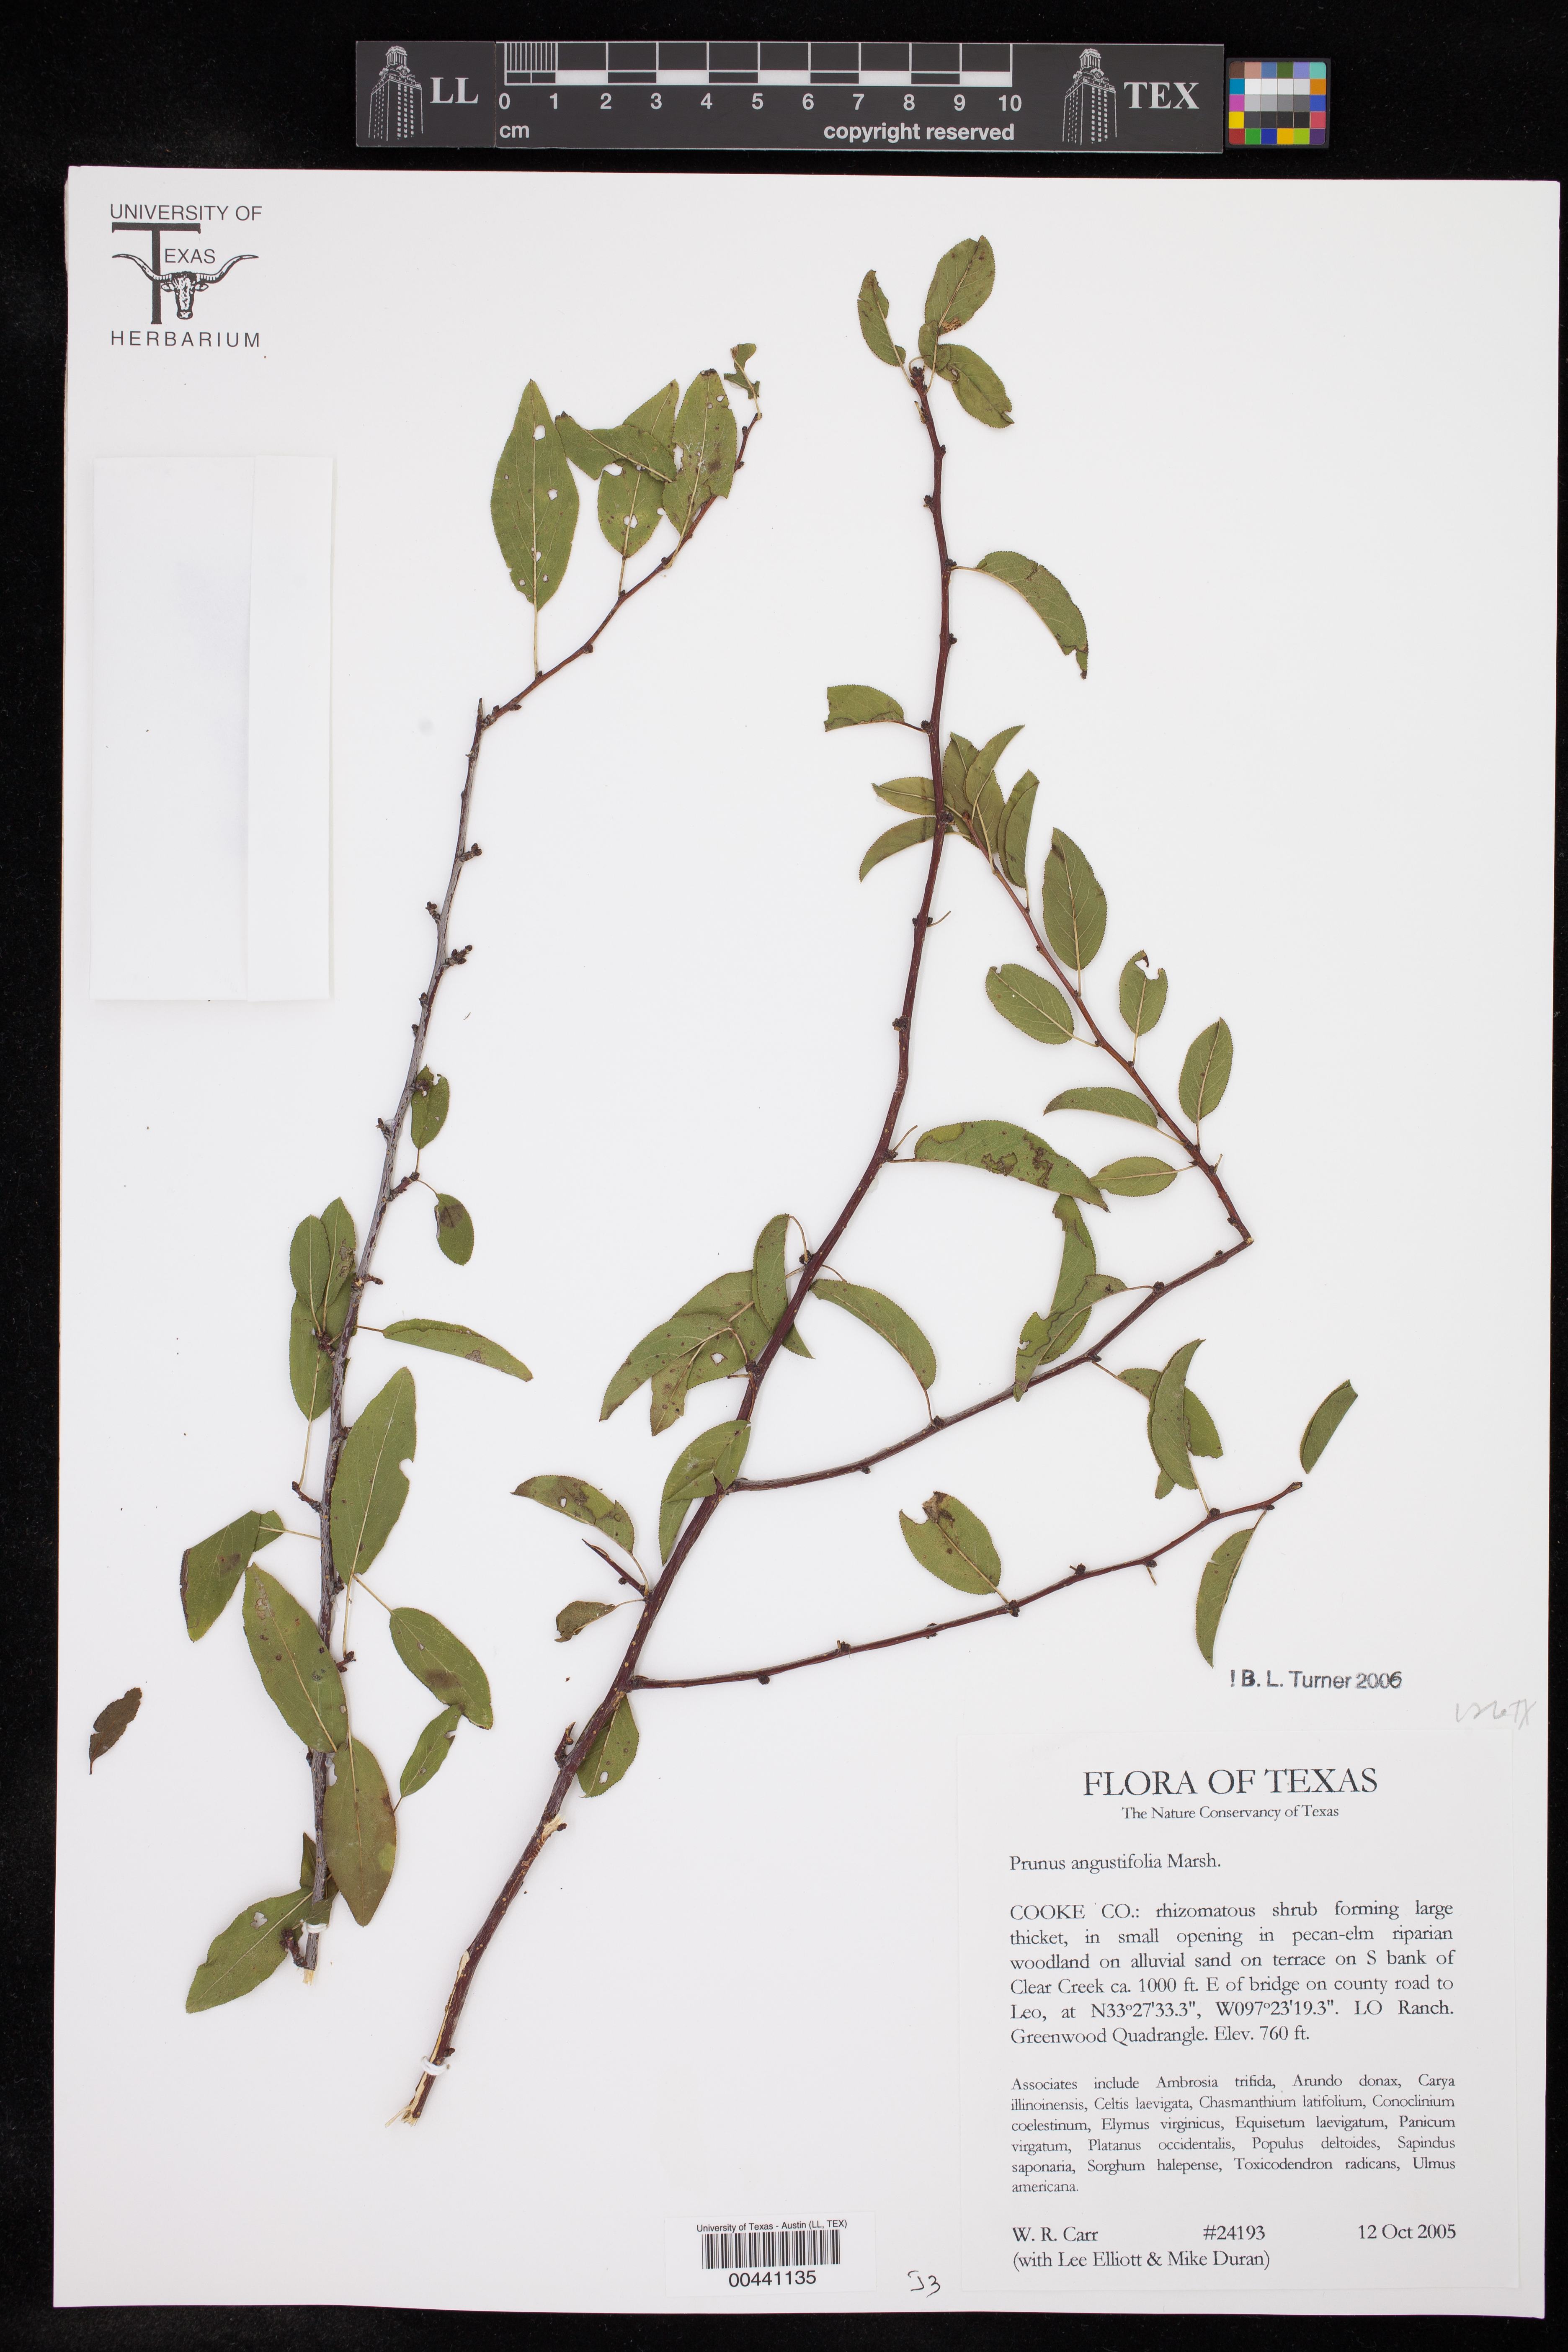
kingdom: Plantae
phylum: Tracheophyta
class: Magnoliopsida
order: Rosales
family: Rosaceae
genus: Prunus
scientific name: Prunus angustifolia
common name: Cherokee plum
